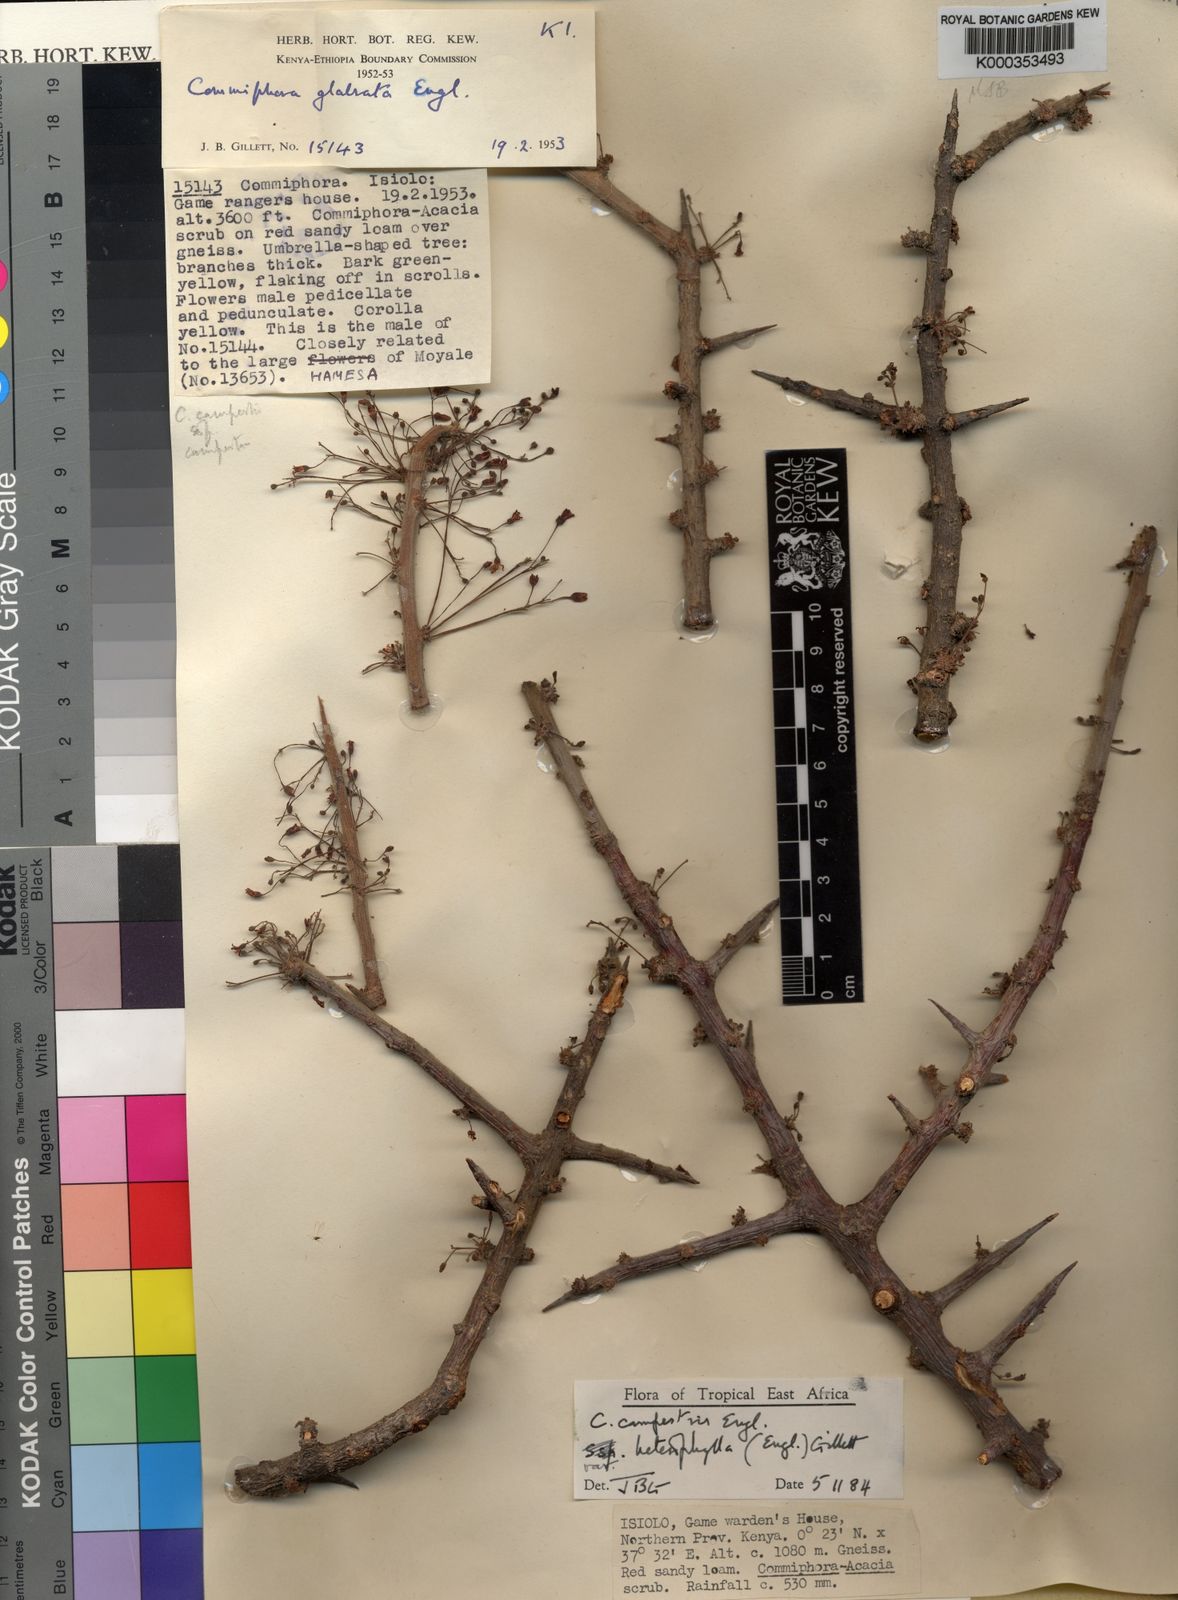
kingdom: Plantae
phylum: Tracheophyta
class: Magnoliopsida
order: Sapindales
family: Burseraceae
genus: Commiphora
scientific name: Commiphora campestris
